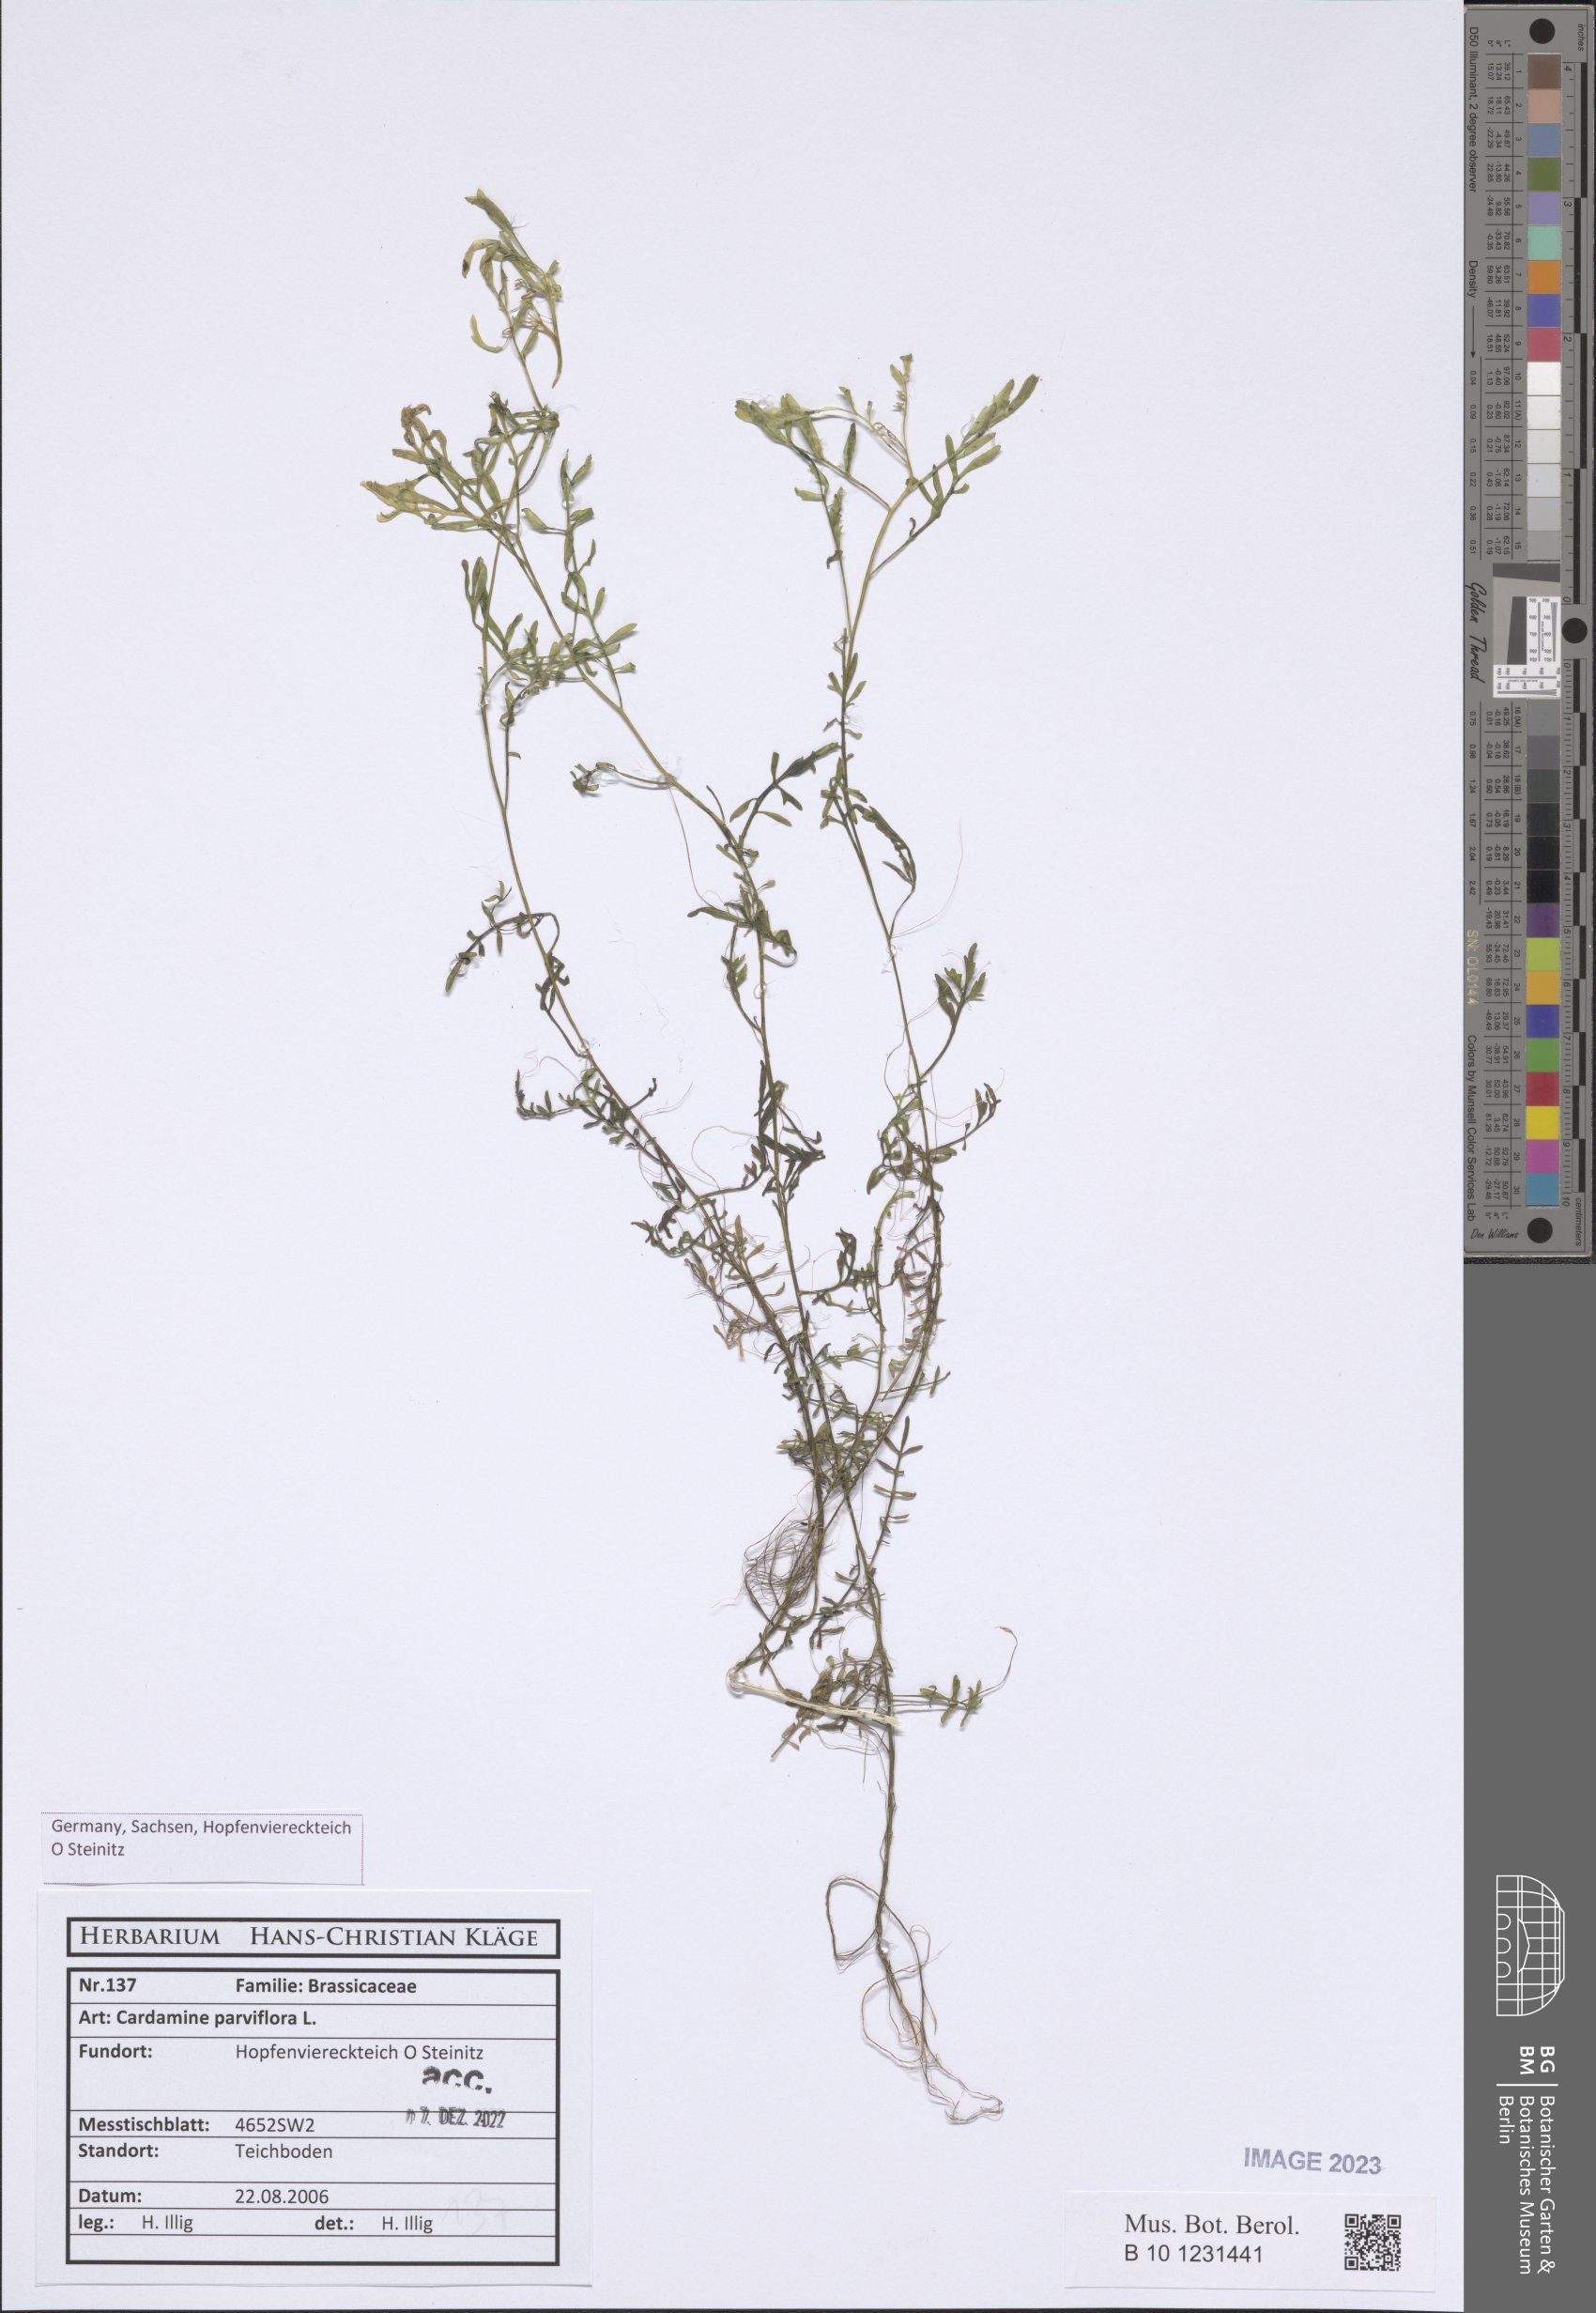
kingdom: Plantae
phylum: Tracheophyta
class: Magnoliopsida
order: Brassicales
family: Brassicaceae
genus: Cardamine
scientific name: Cardamine parviflora
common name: Sand bittercress
